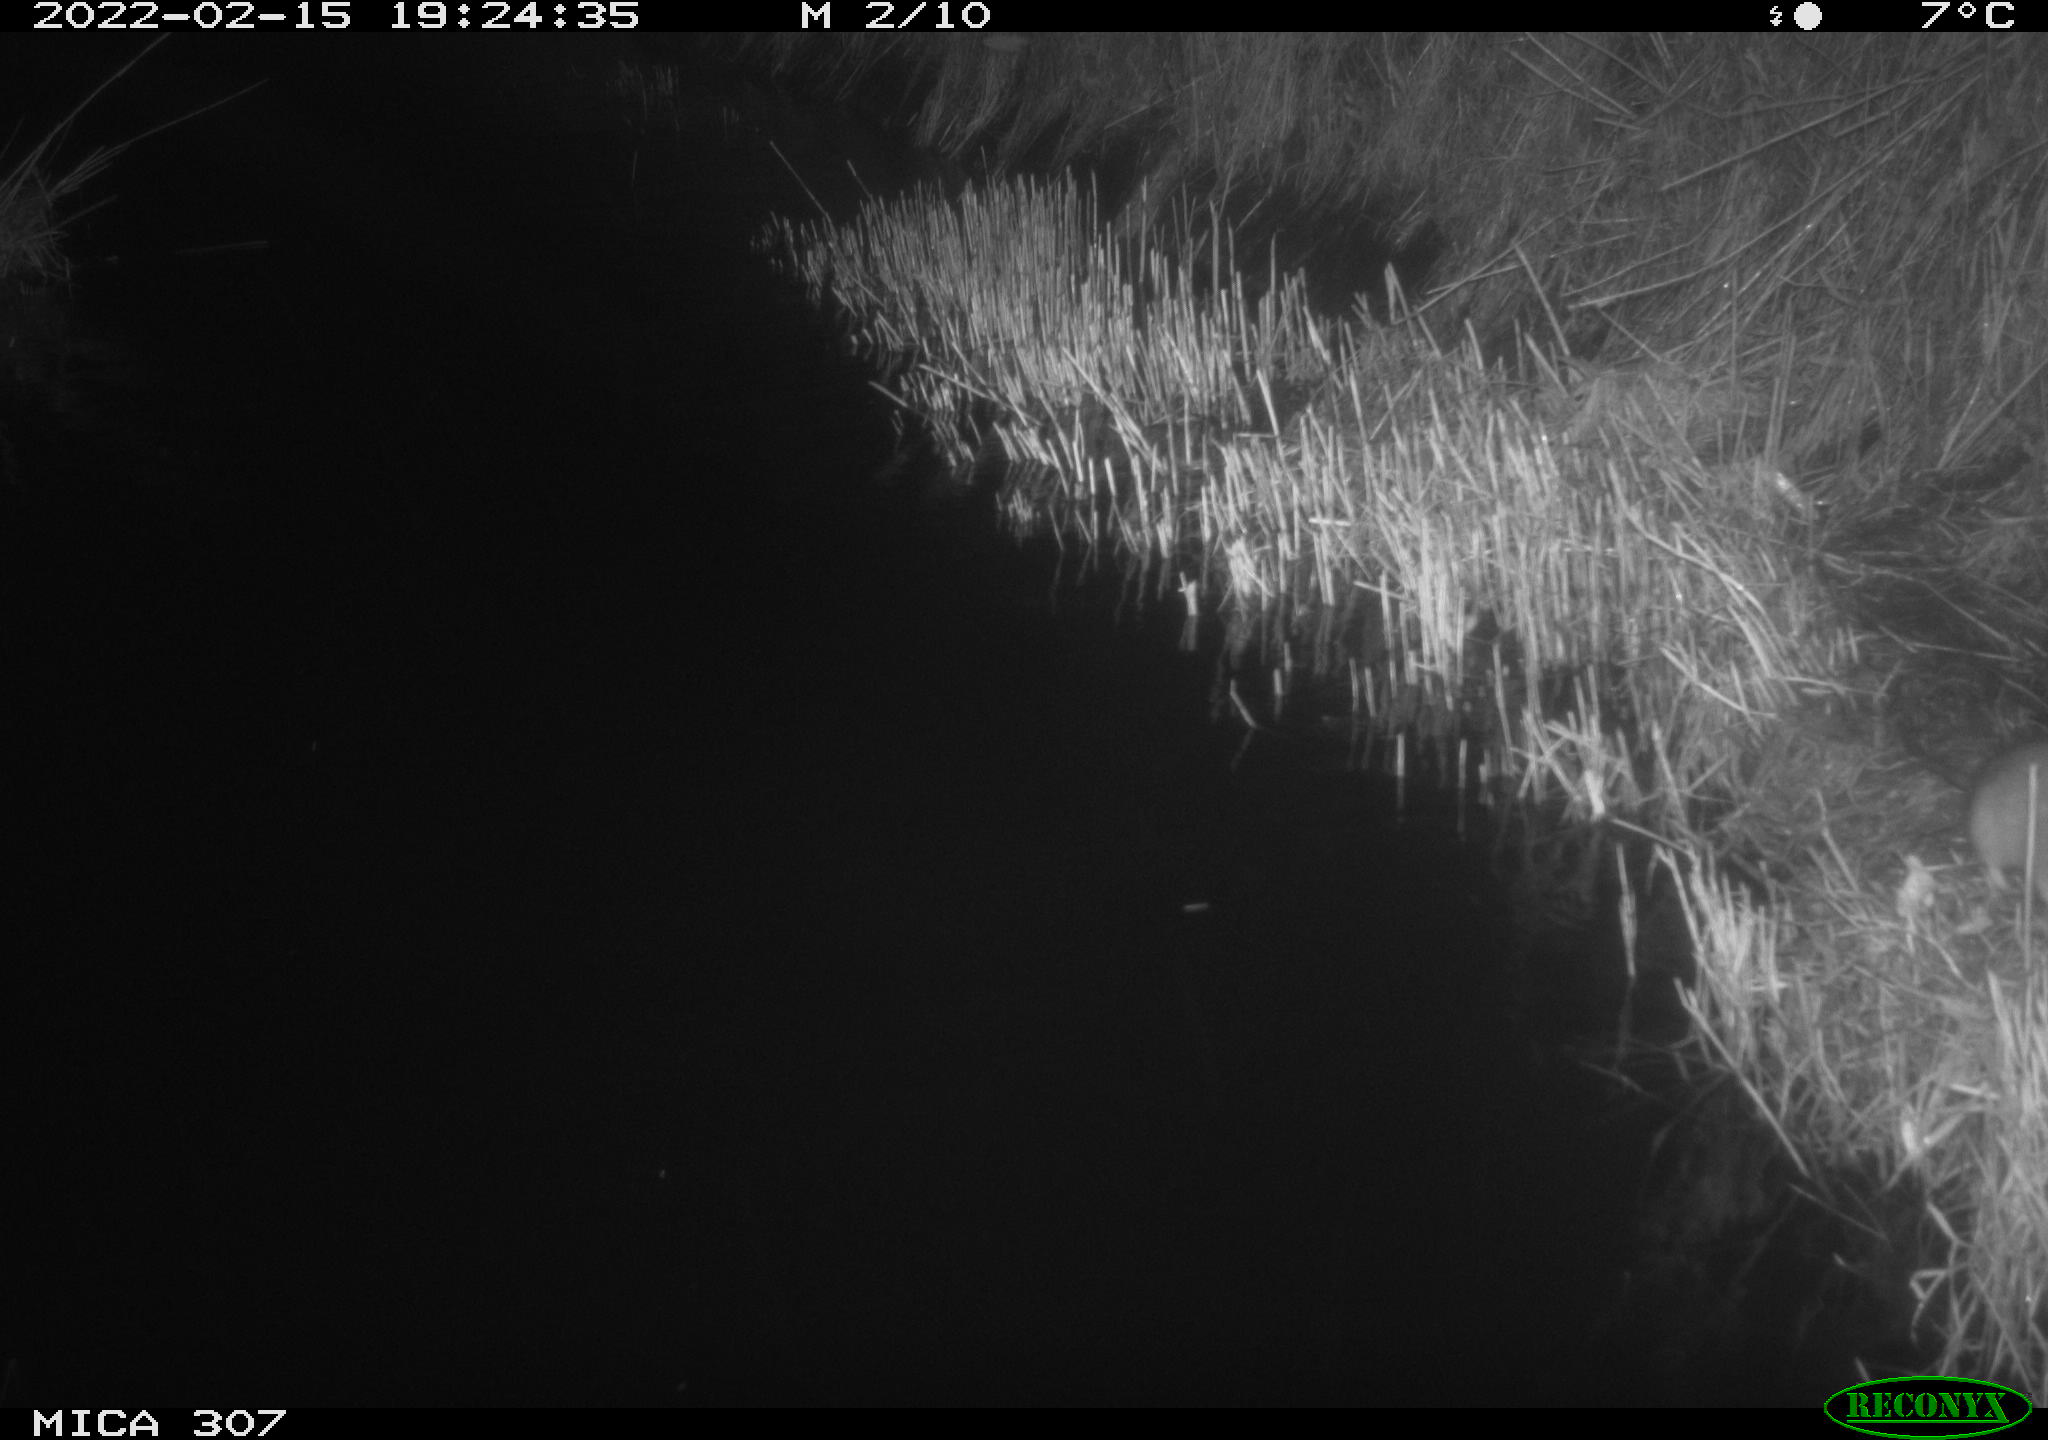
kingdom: Animalia
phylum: Chordata
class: Mammalia
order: Rodentia
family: Muridae
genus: Rattus
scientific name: Rattus norvegicus
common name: Brown rat
